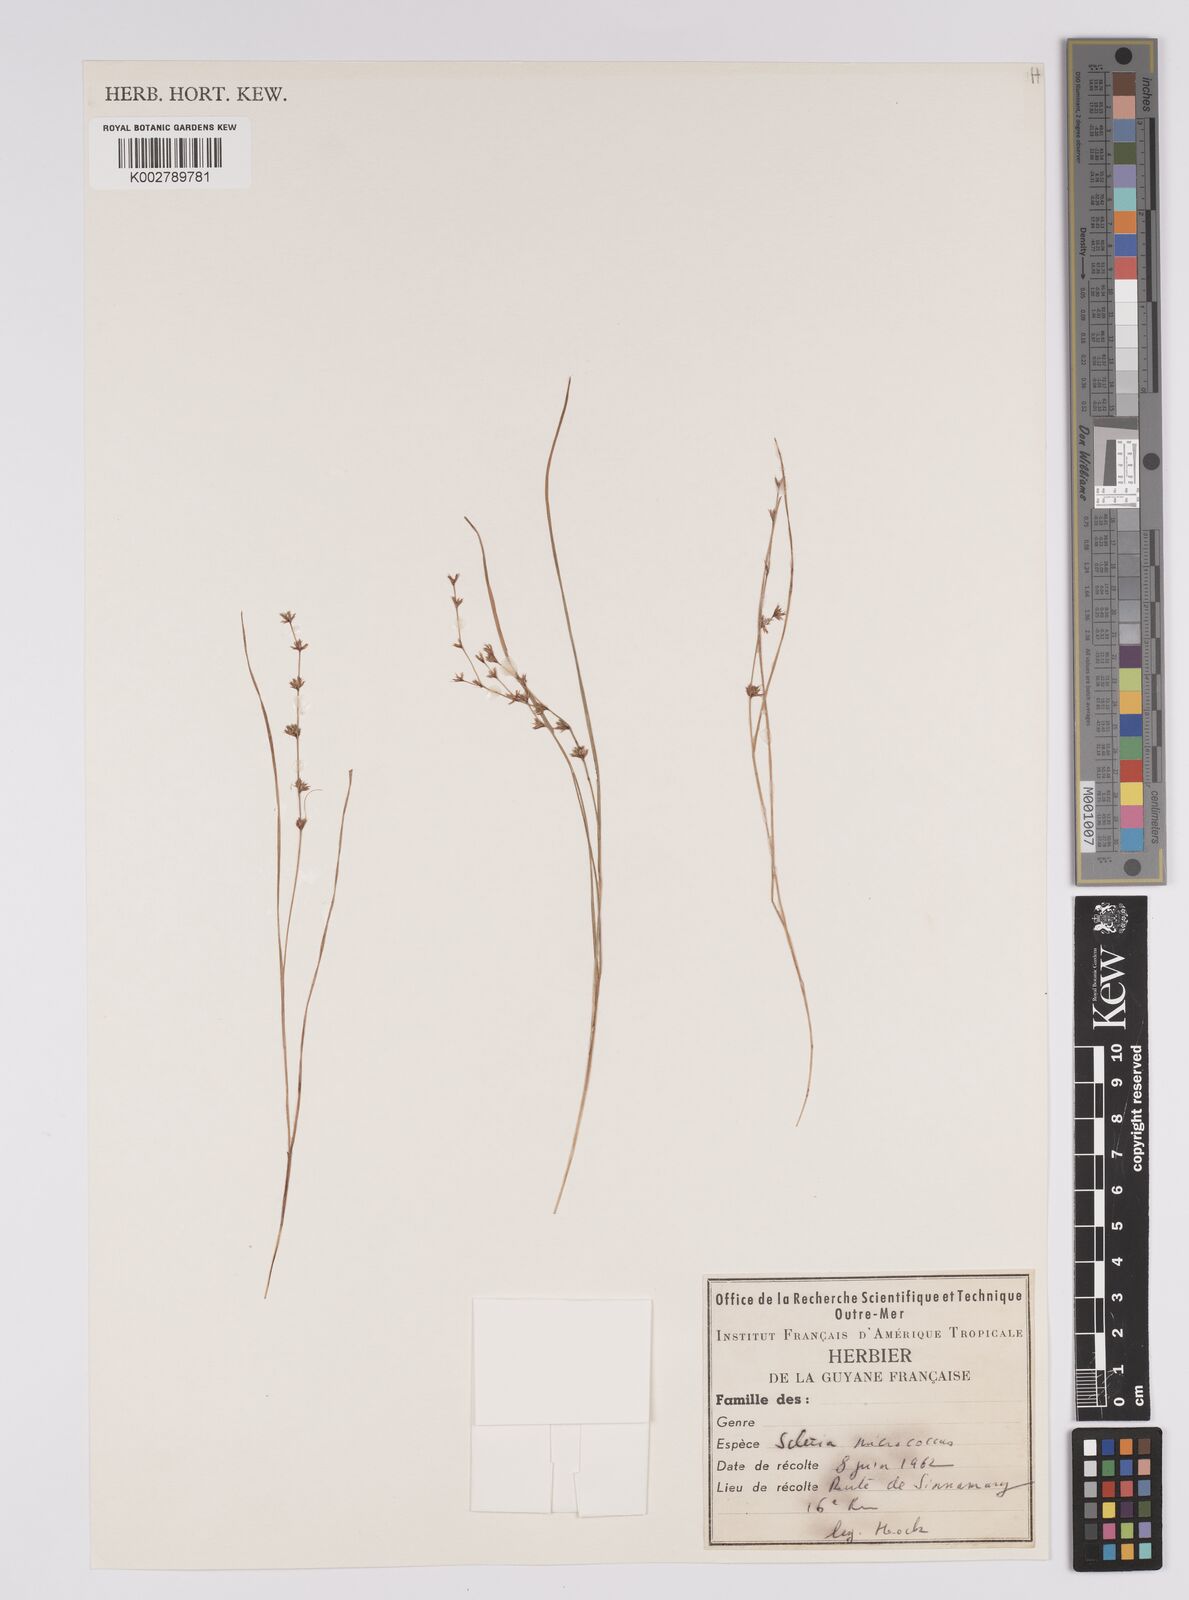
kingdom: Plantae
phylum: Tracheophyta
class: Liliopsida
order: Poales
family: Cyperaceae
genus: Scleria
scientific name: Scleria tenella
